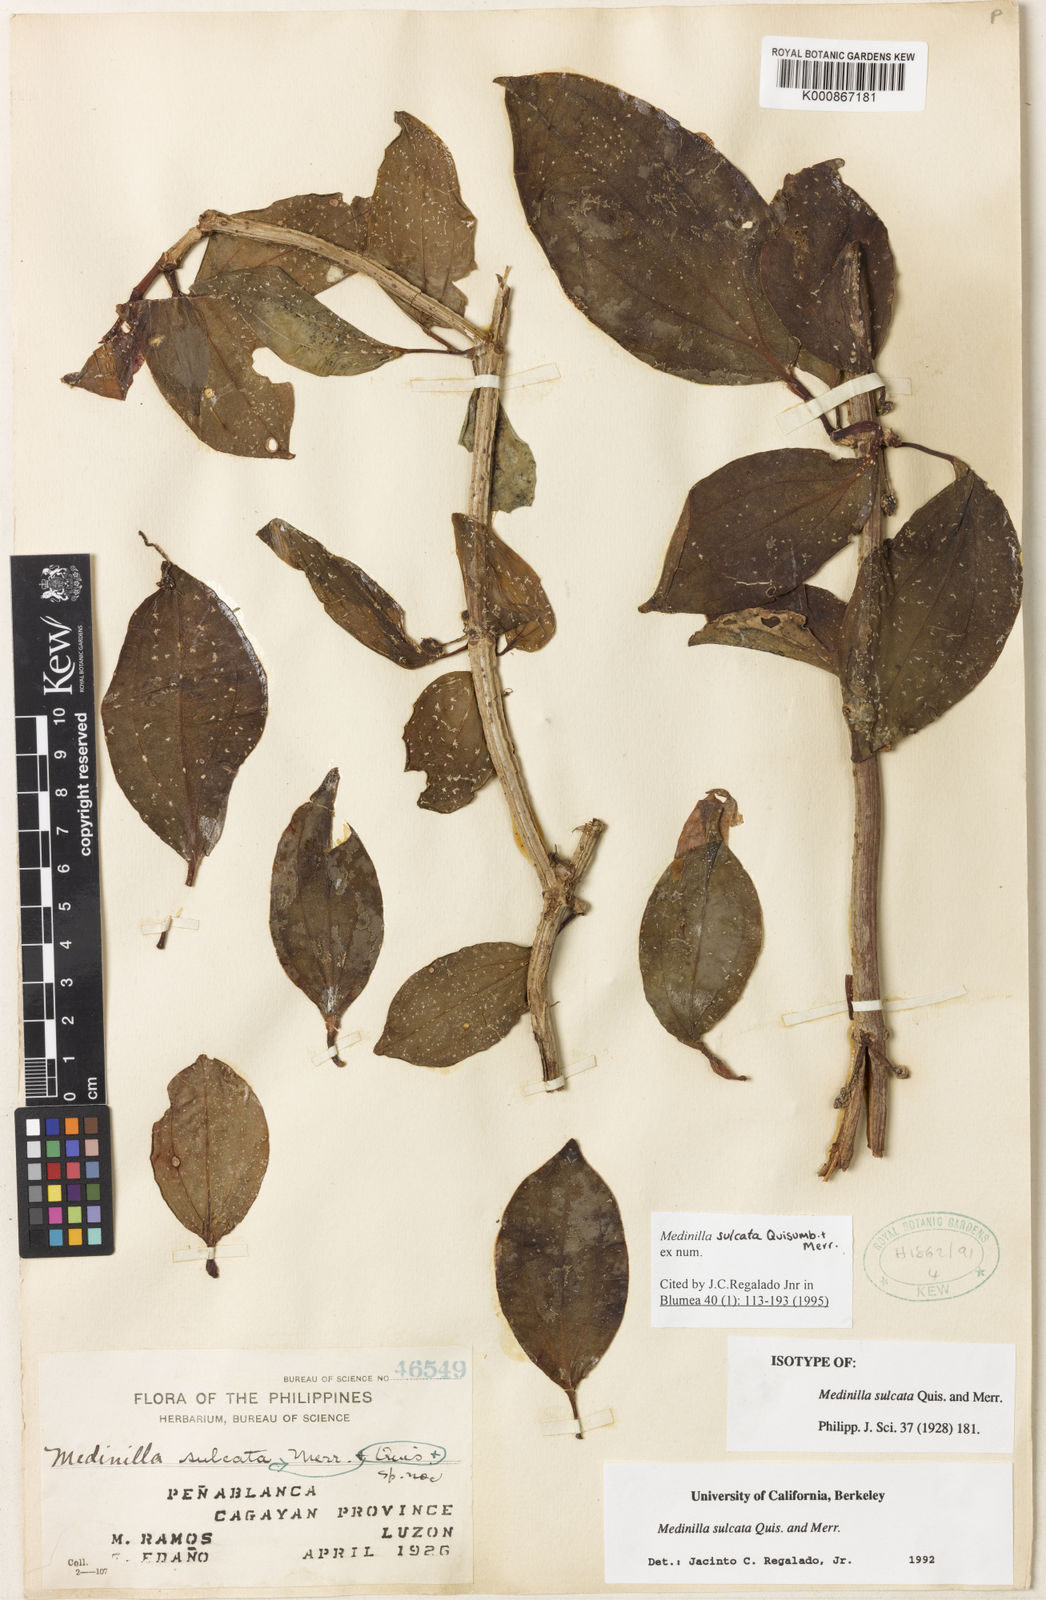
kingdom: Plantae
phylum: Tracheophyta
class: Magnoliopsida
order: Myrtales
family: Melastomataceae
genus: Medinilla
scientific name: Medinilla sulcata
